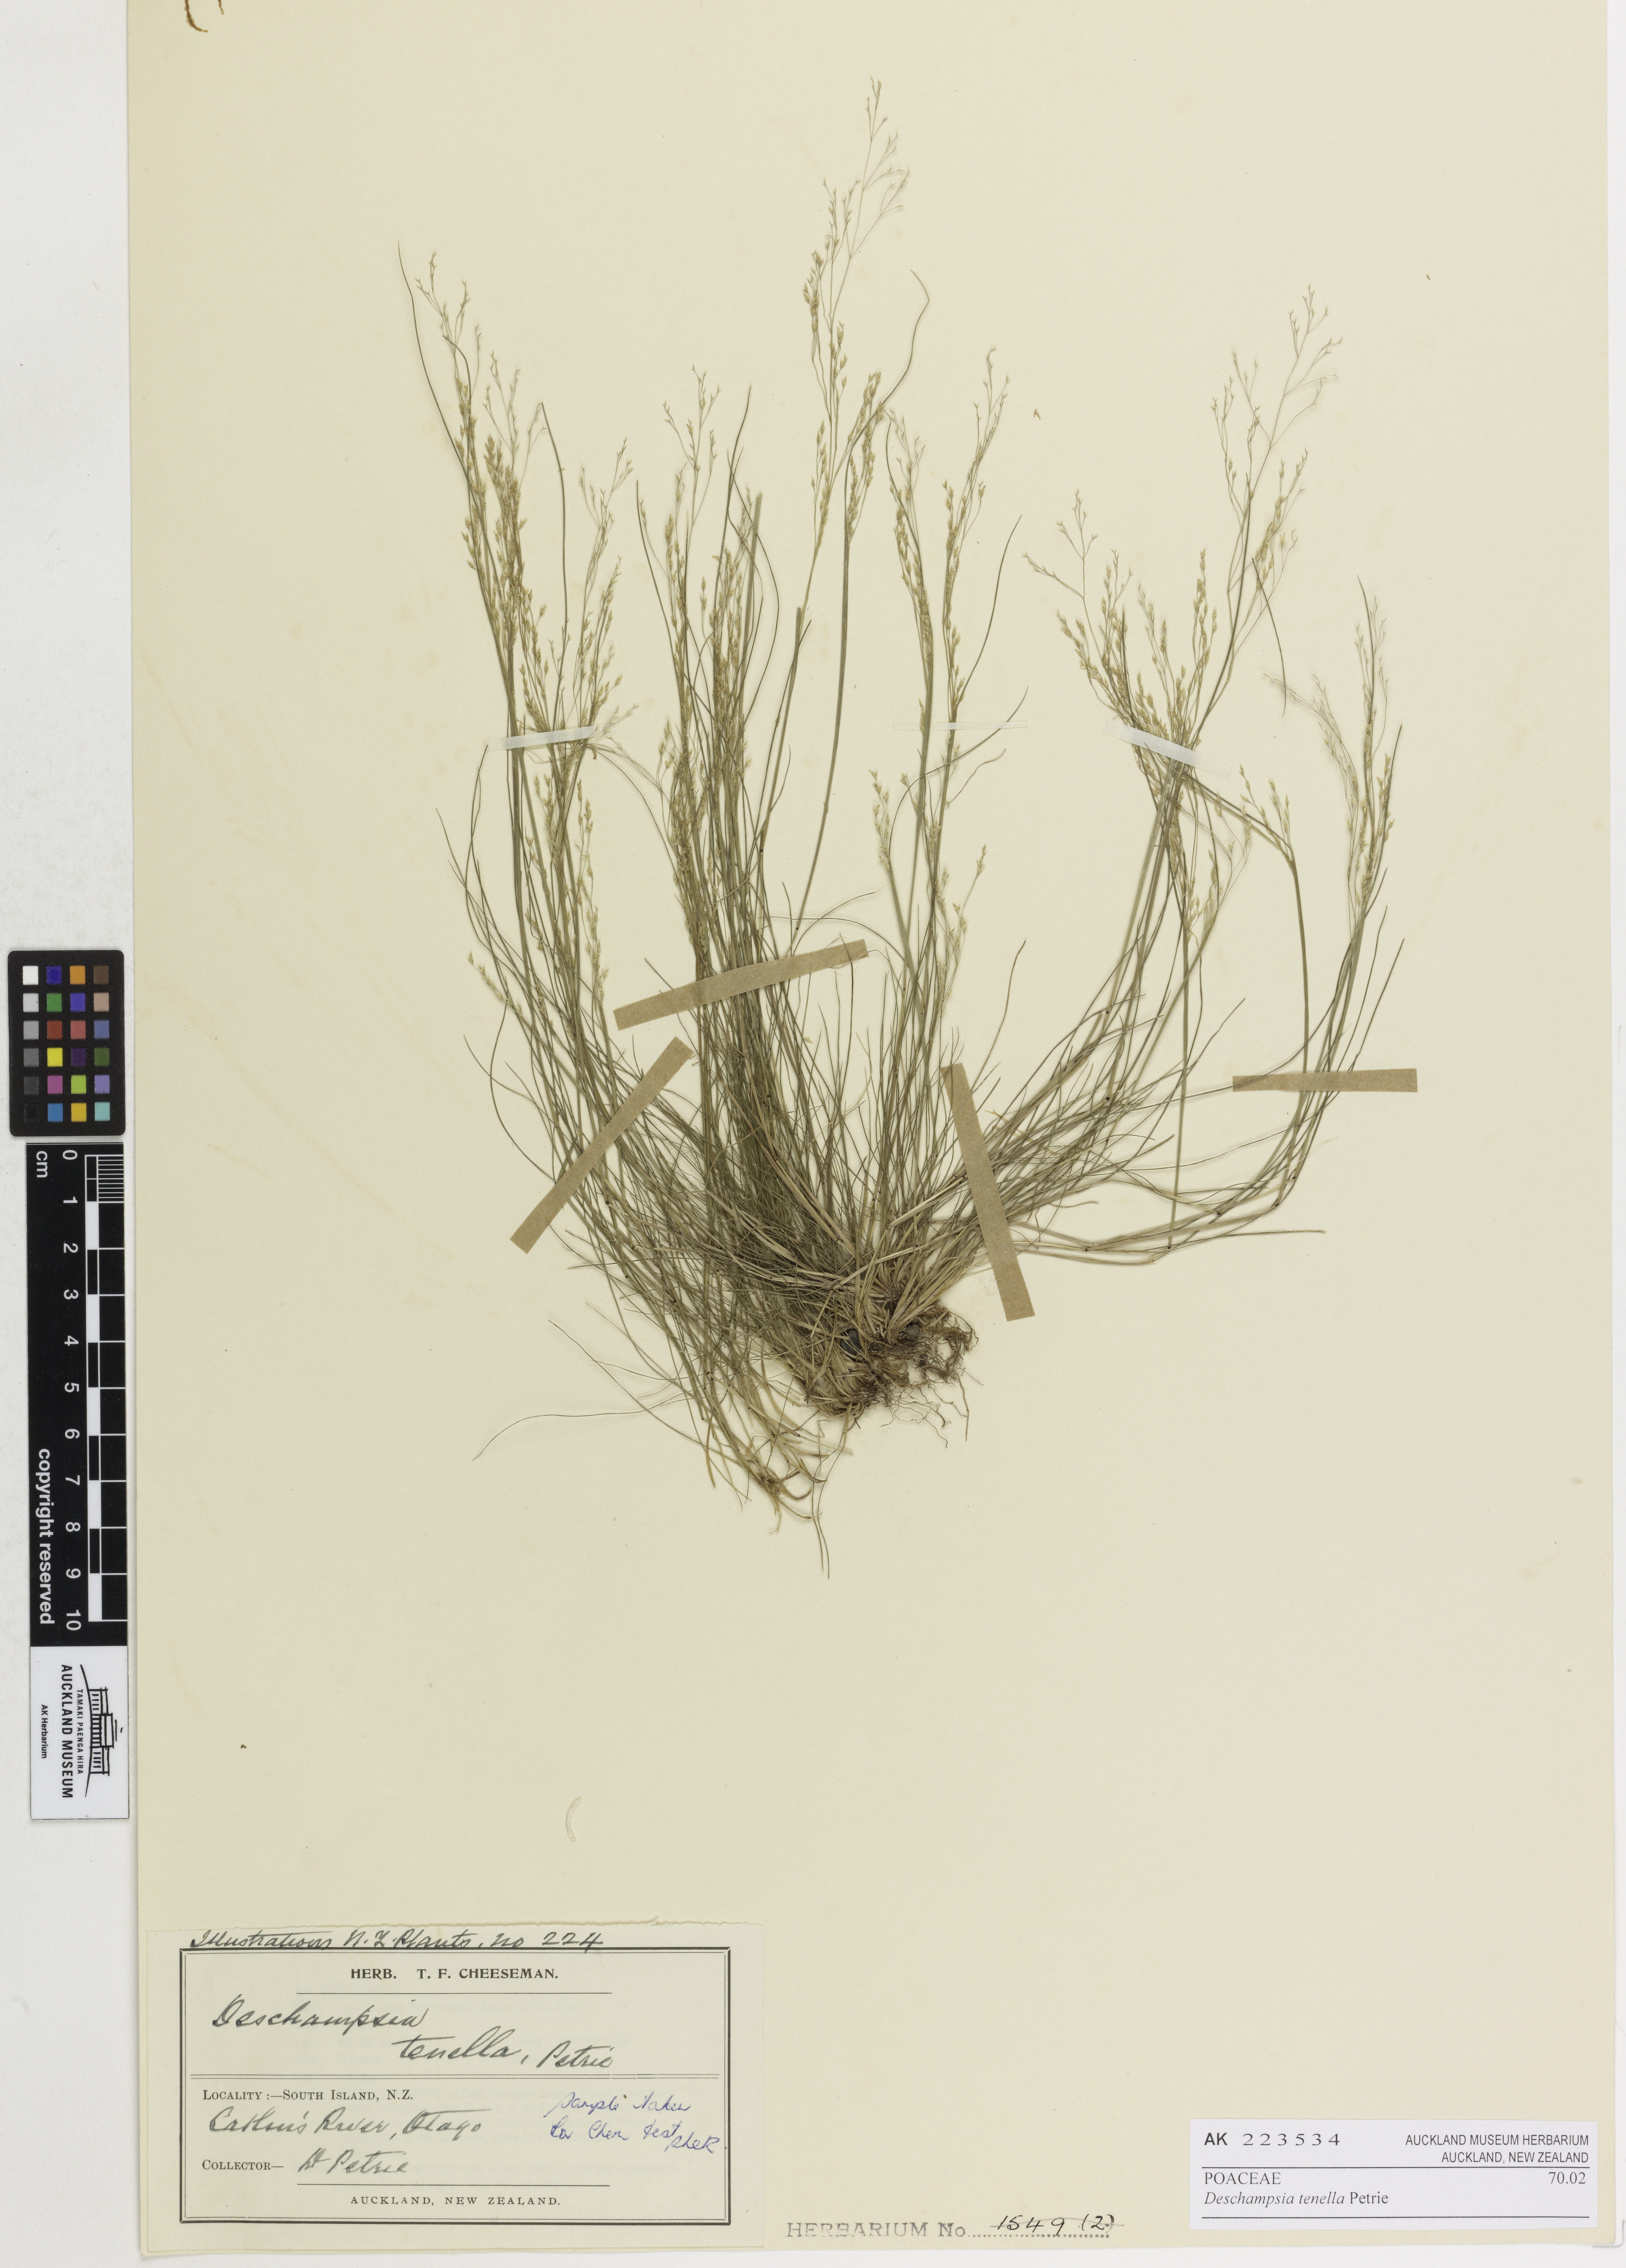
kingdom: Plantae
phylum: Tracheophyta
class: Liliopsida
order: Poales
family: Poaceae
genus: Deschampsia
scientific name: Deschampsia tenella
